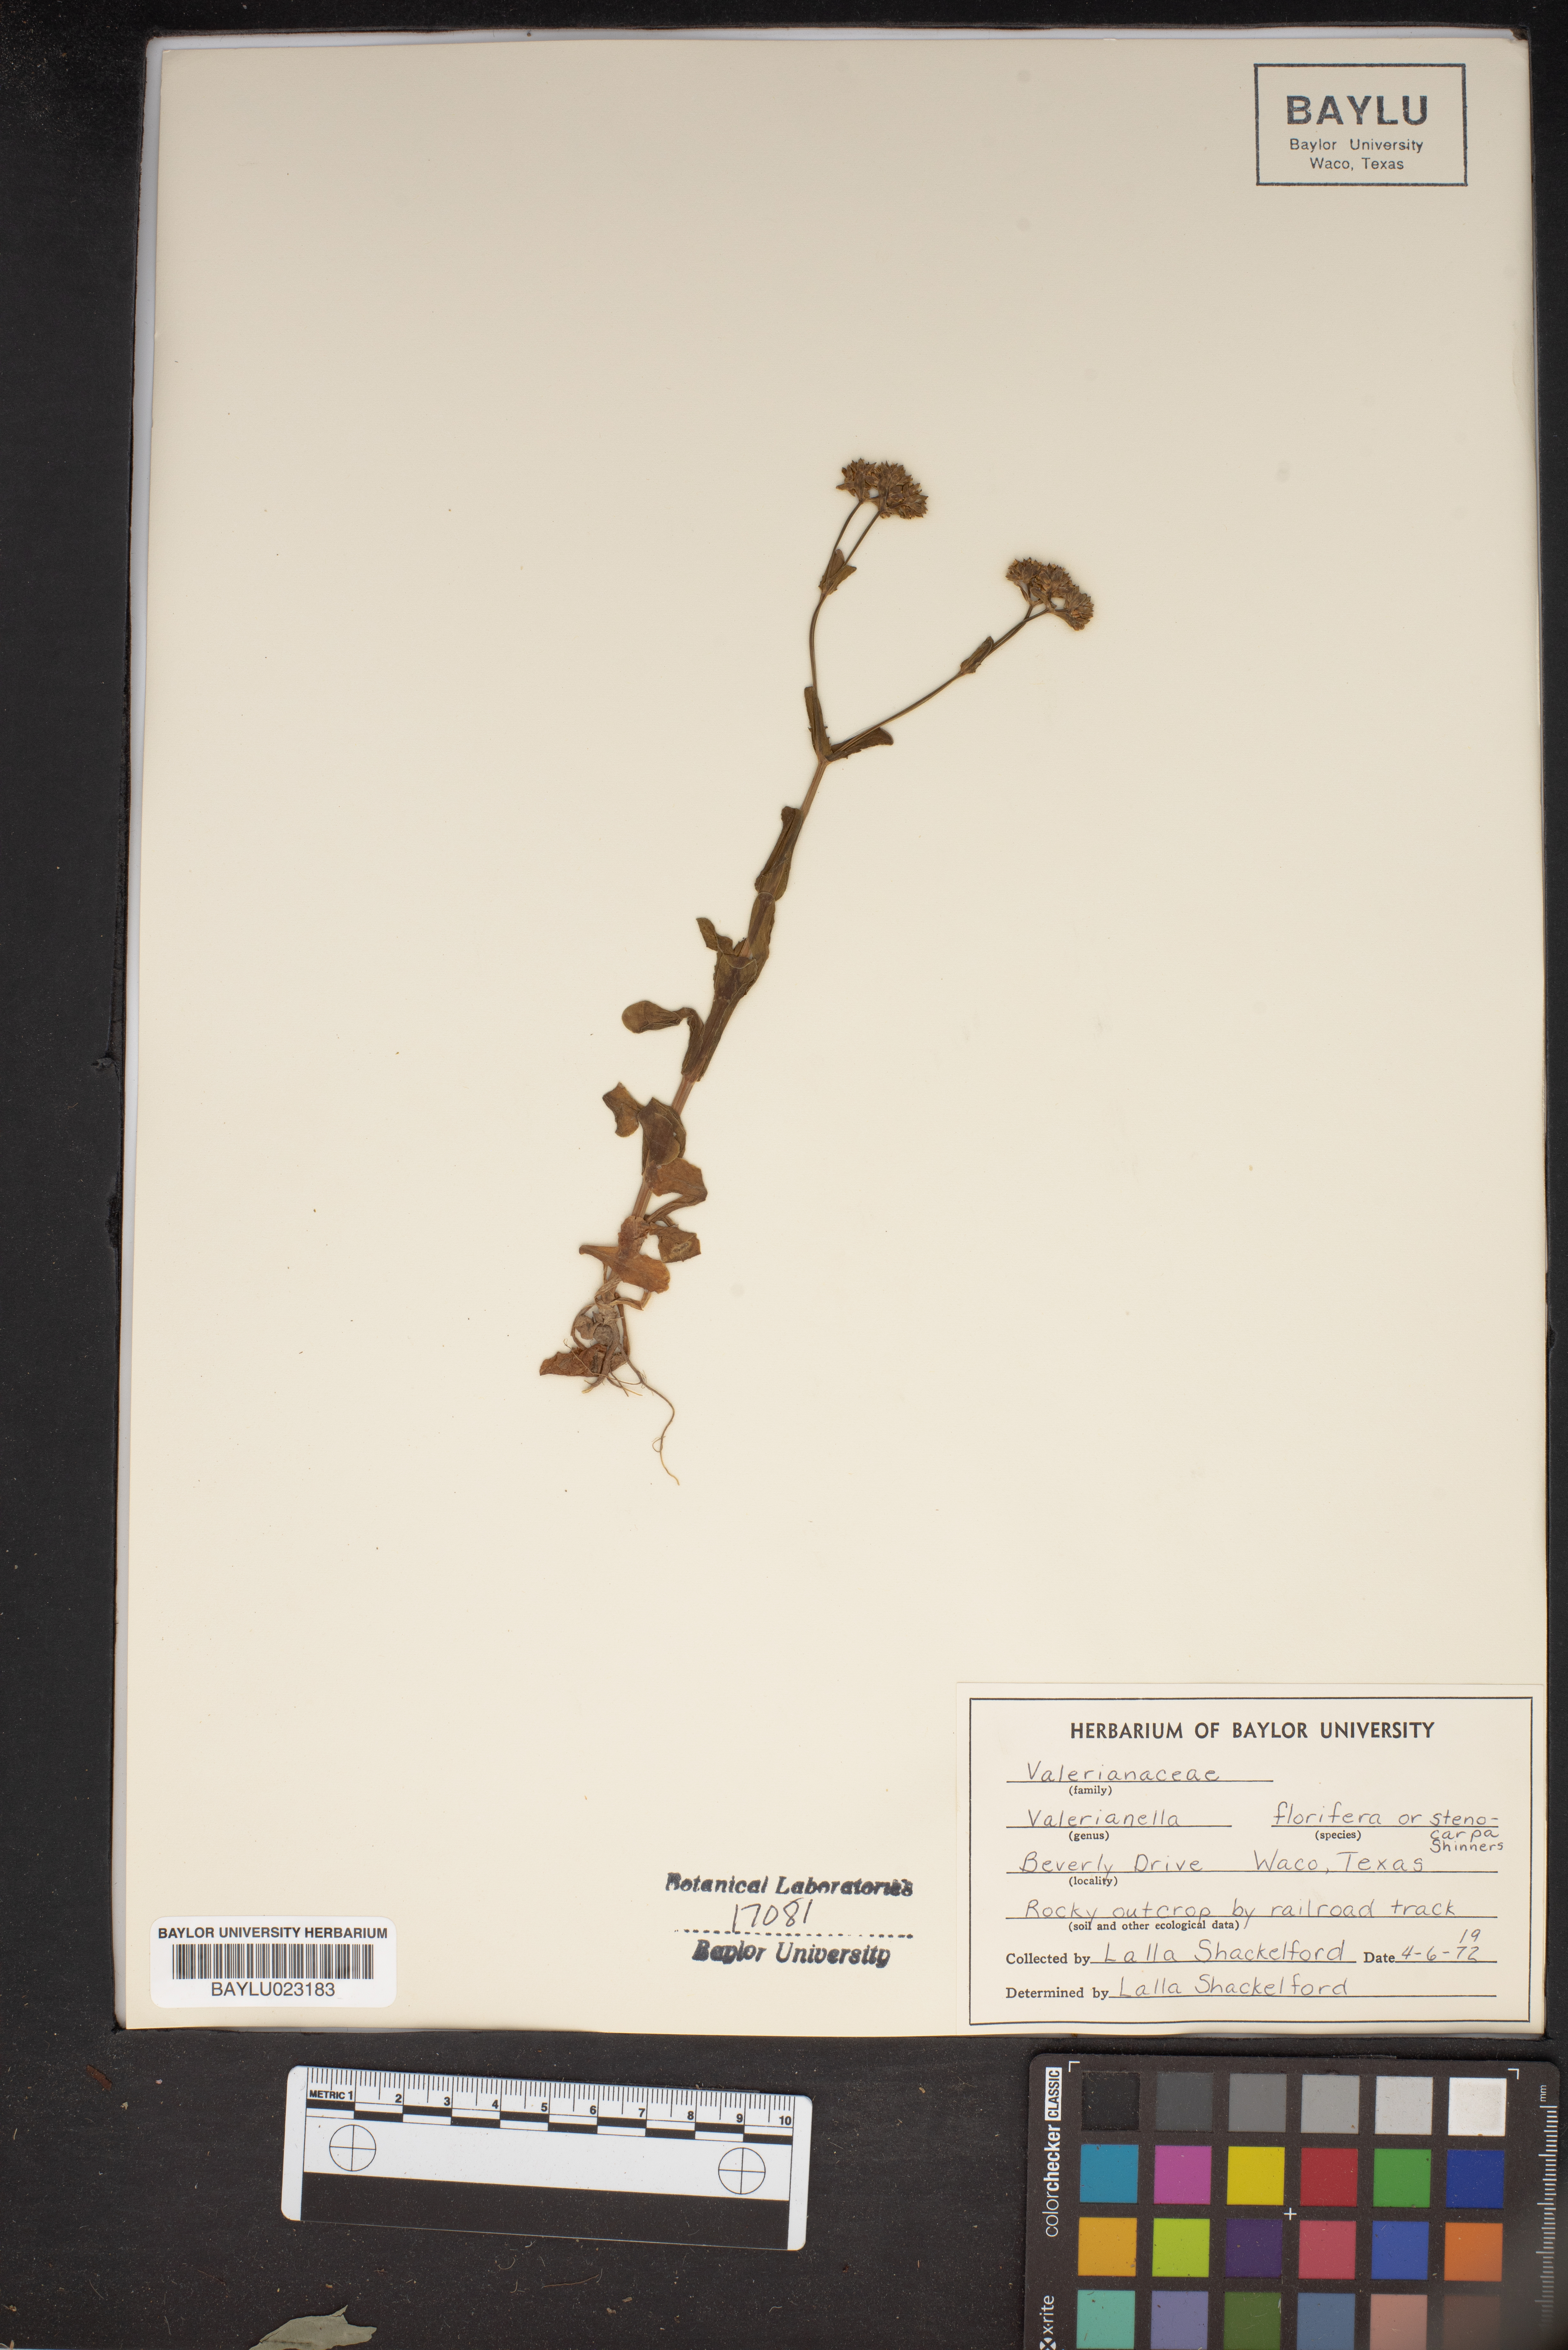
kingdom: Plantae
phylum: Tracheophyta
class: Magnoliopsida
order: Dipsacales
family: Caprifoliaceae
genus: Valerianella
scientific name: Valerianella florifera
